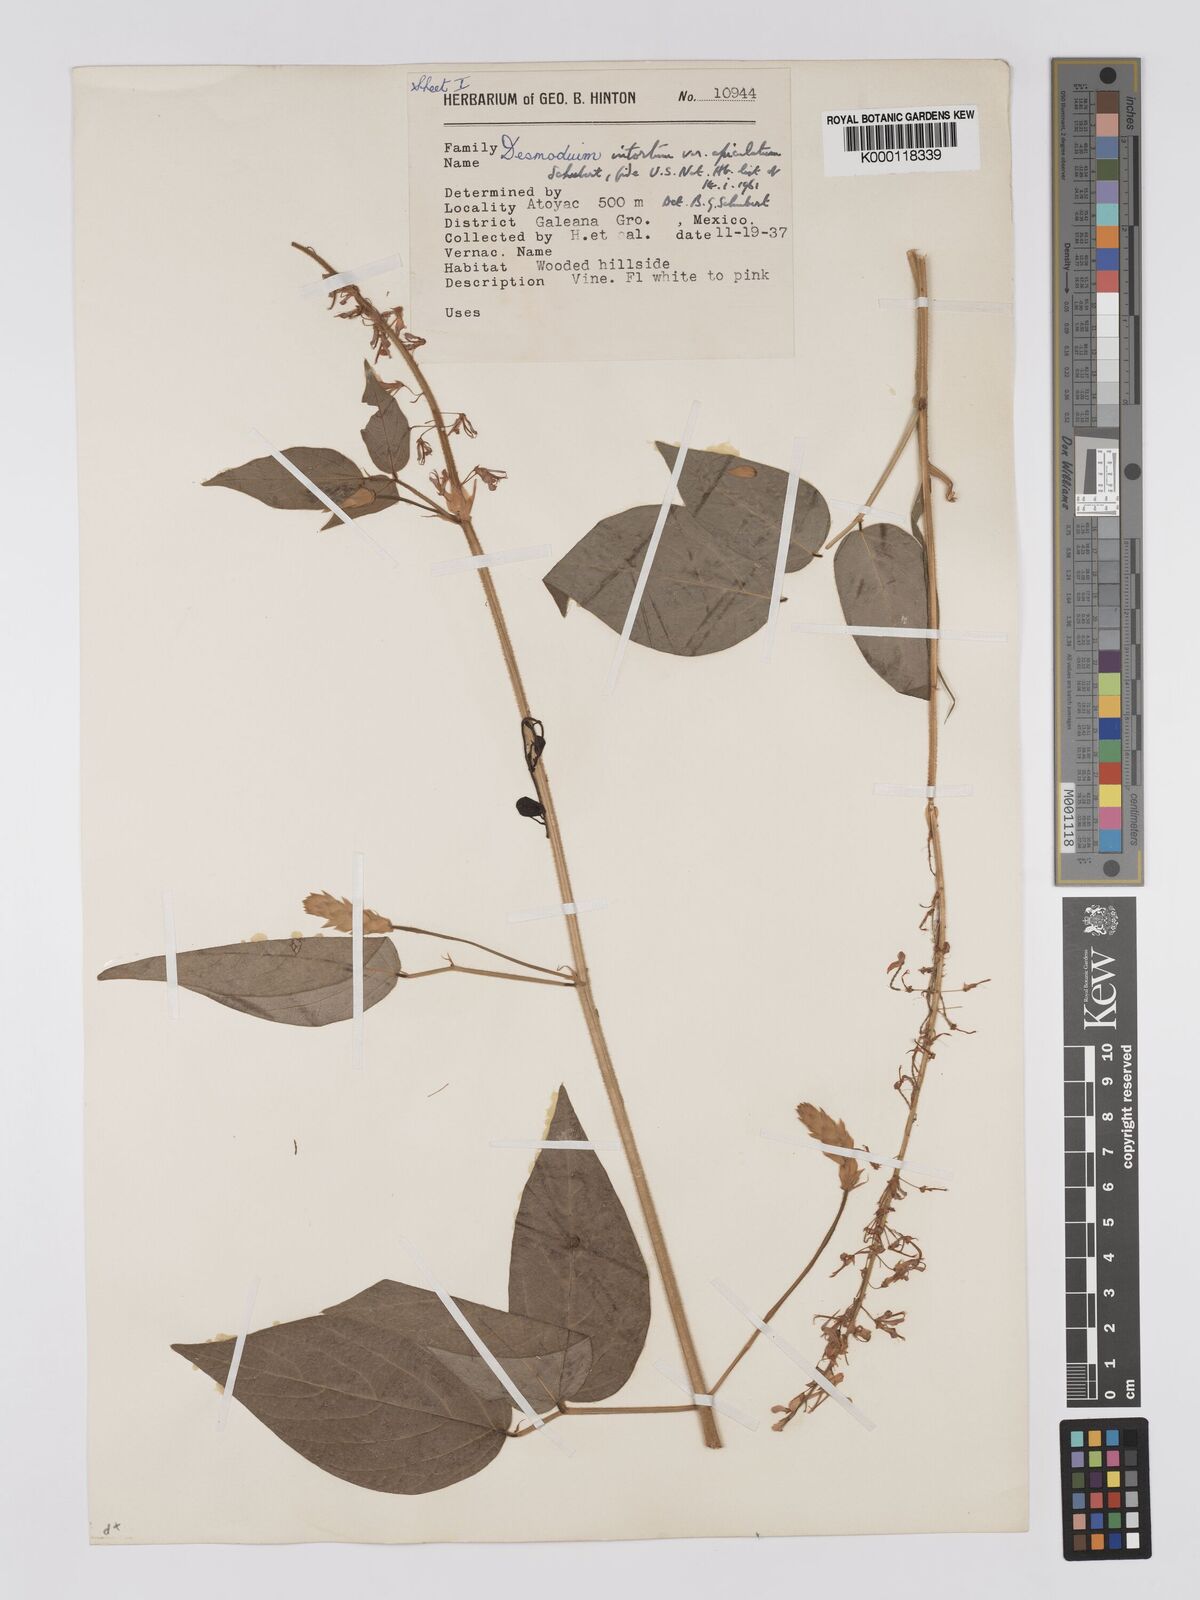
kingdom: Plantae
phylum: Tracheophyta
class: Magnoliopsida
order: Fabales
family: Fabaceae
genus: Desmodium
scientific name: Desmodium intortum
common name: Greenleaf ticktrefoil
